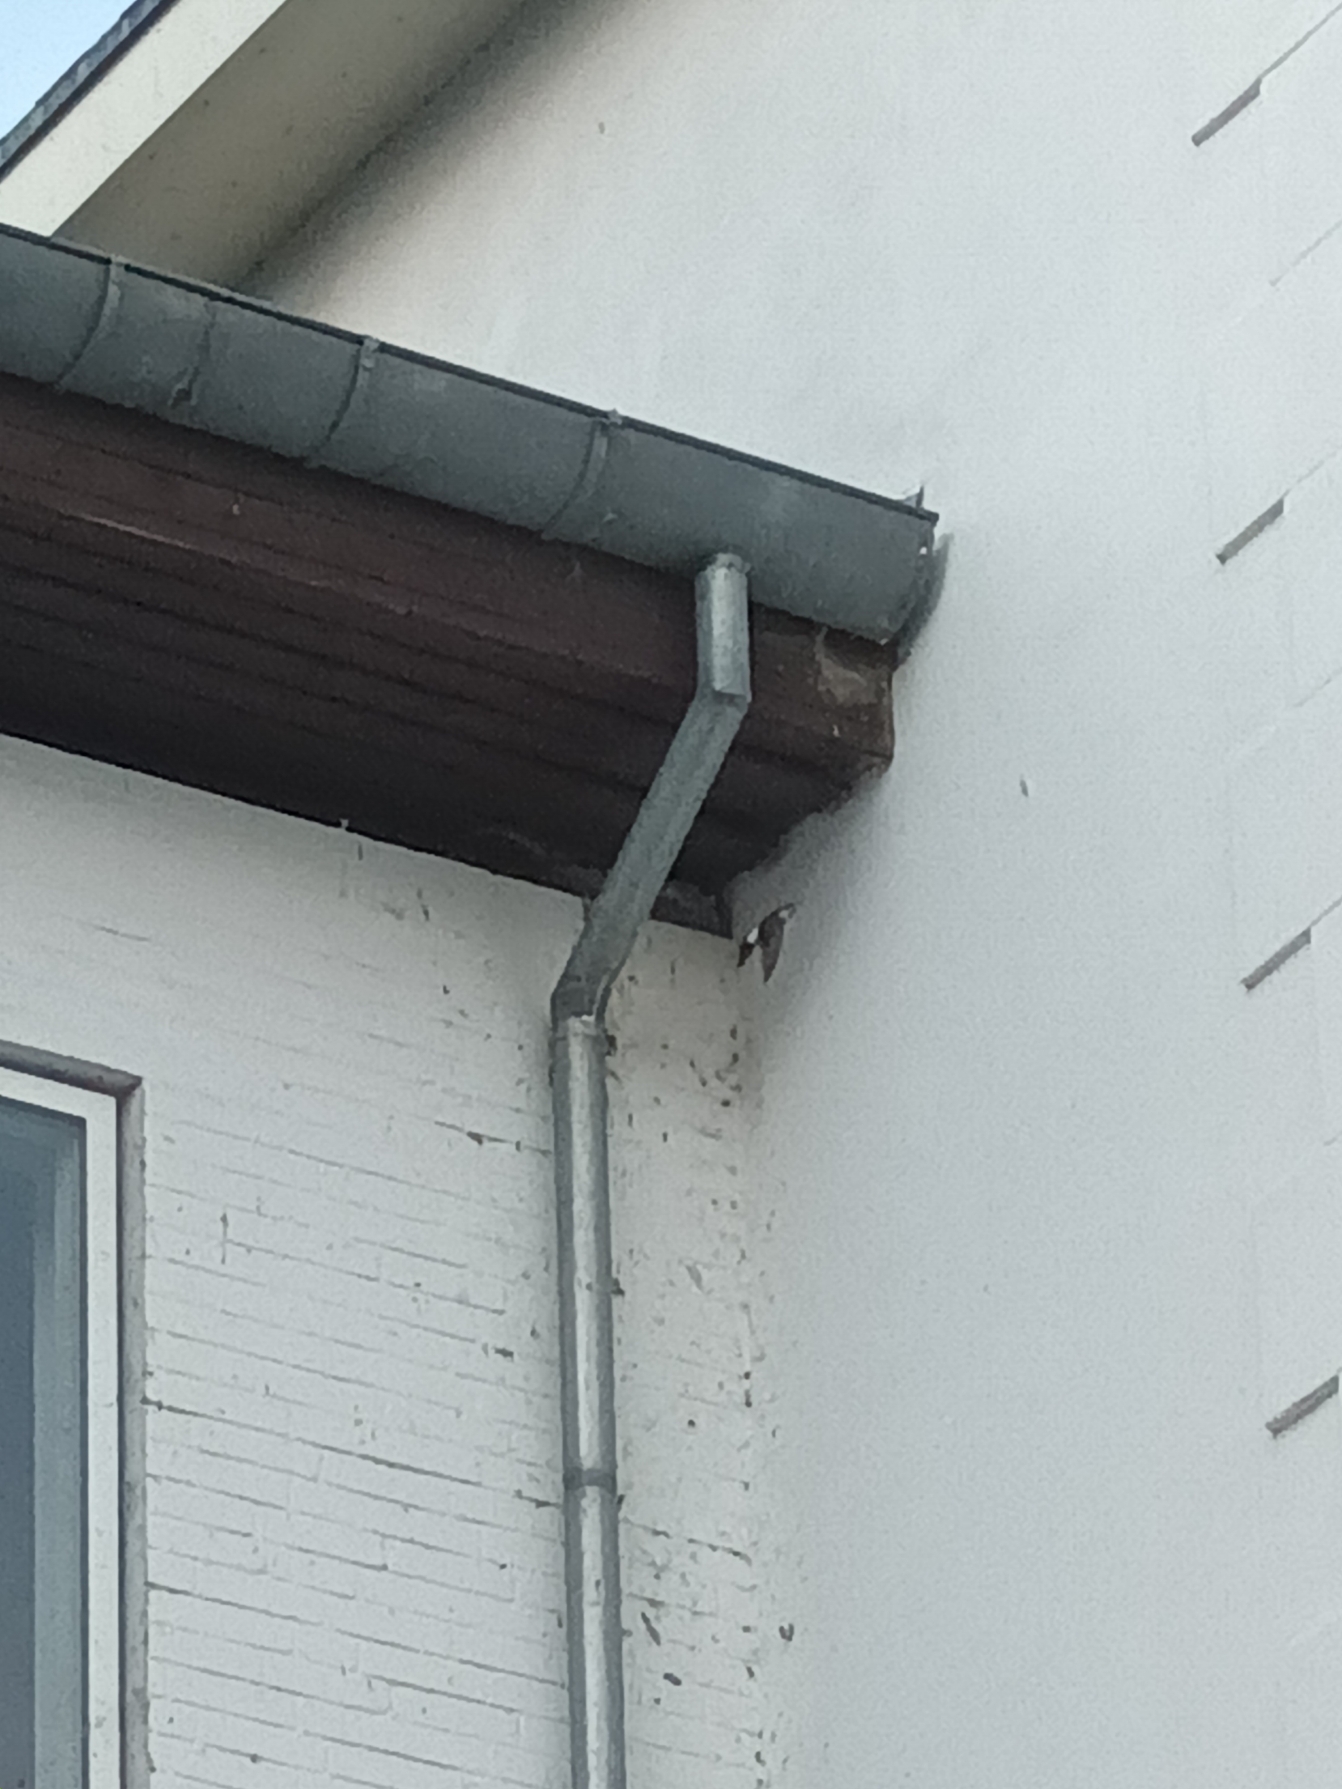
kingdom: Animalia
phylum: Chordata
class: Aves
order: Passeriformes
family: Hirundinidae
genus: Delichon
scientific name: Delichon urbicum
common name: Bysvale
